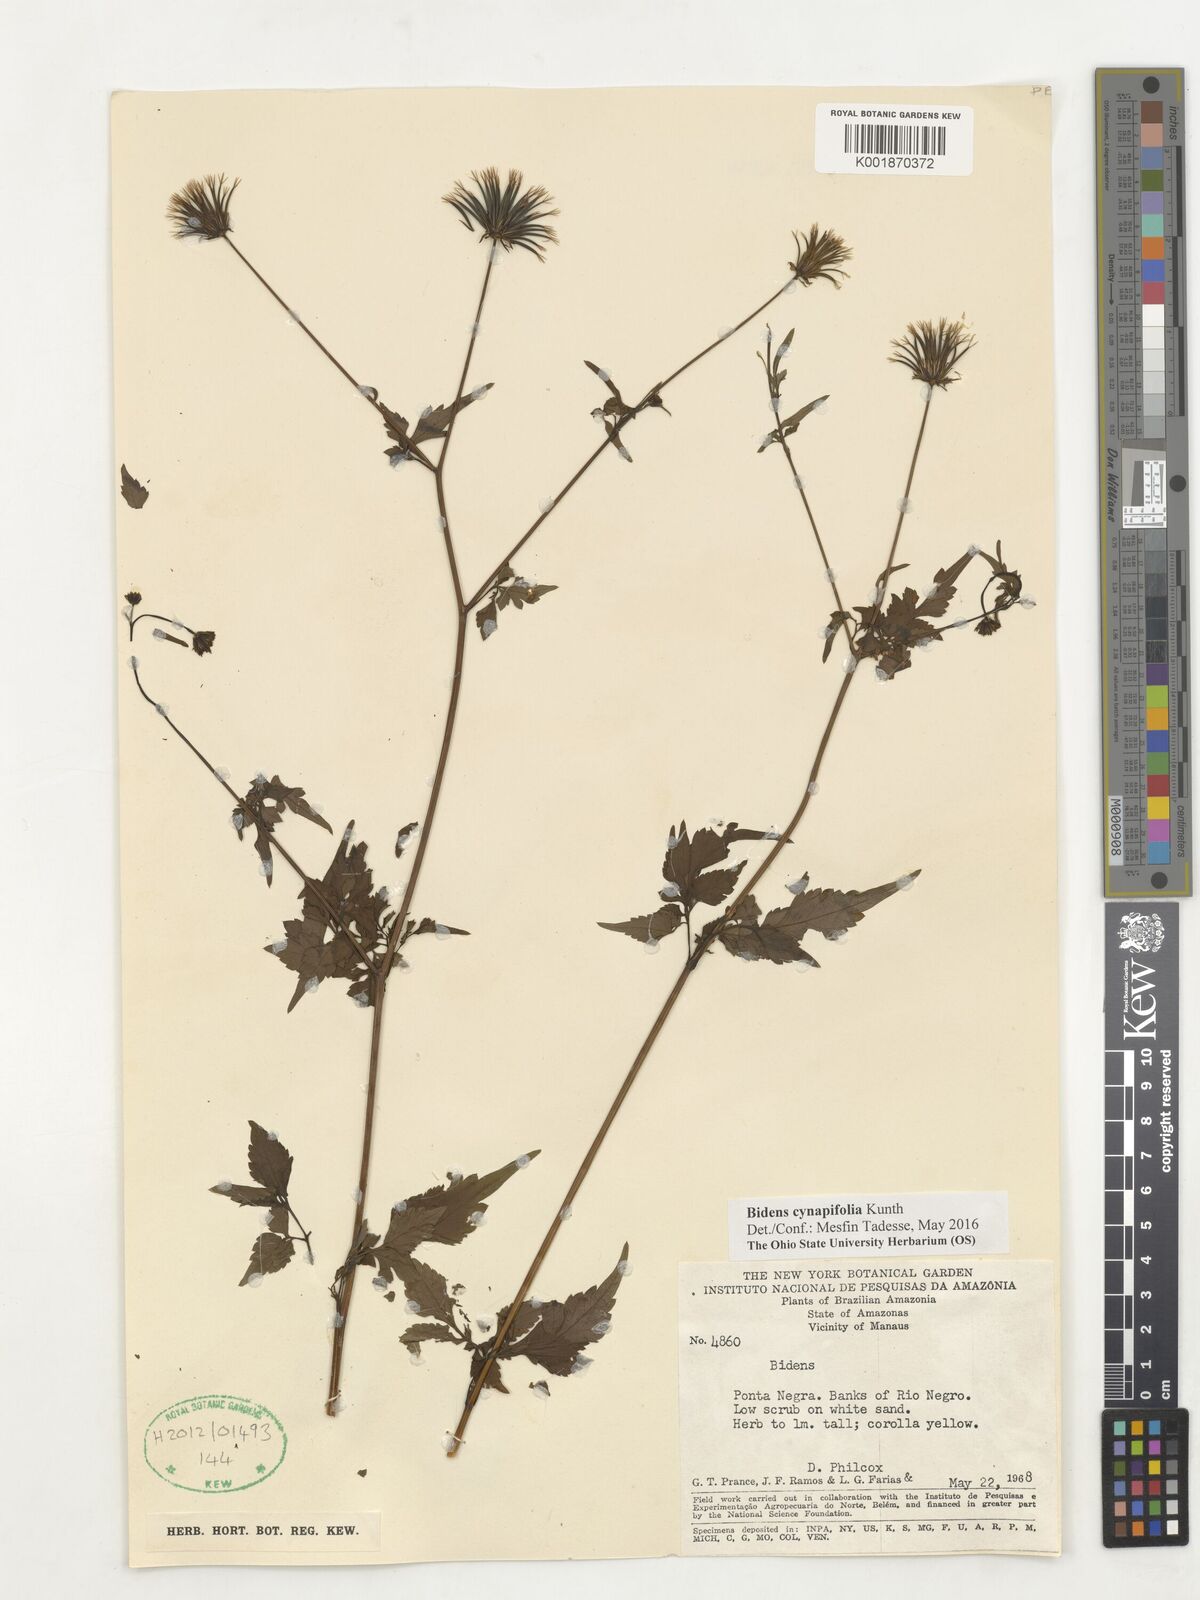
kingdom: Plantae
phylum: Tracheophyta
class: Magnoliopsida
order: Asterales
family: Asteraceae
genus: Bidens
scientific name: Bidens cynapiifolia
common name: Beggar's tick
